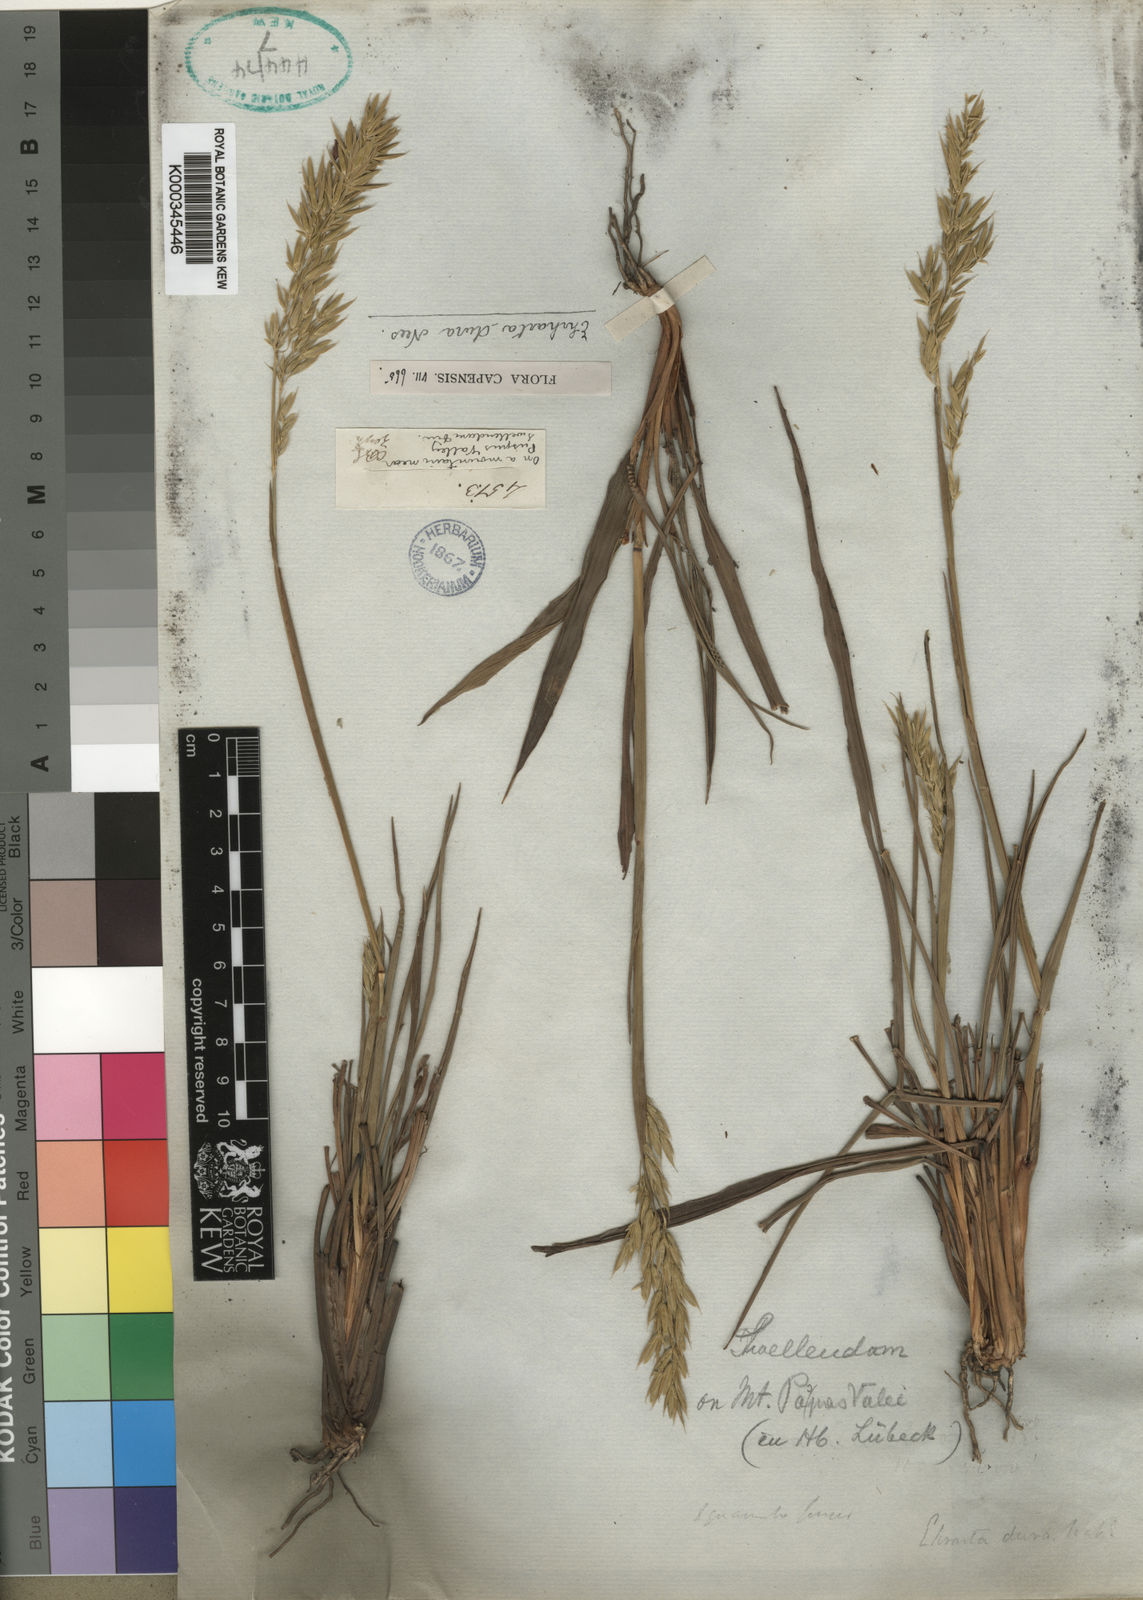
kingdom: Plantae
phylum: Tracheophyta
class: Liliopsida
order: Poales
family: Poaceae
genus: Ehrharta
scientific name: Ehrharta dura
